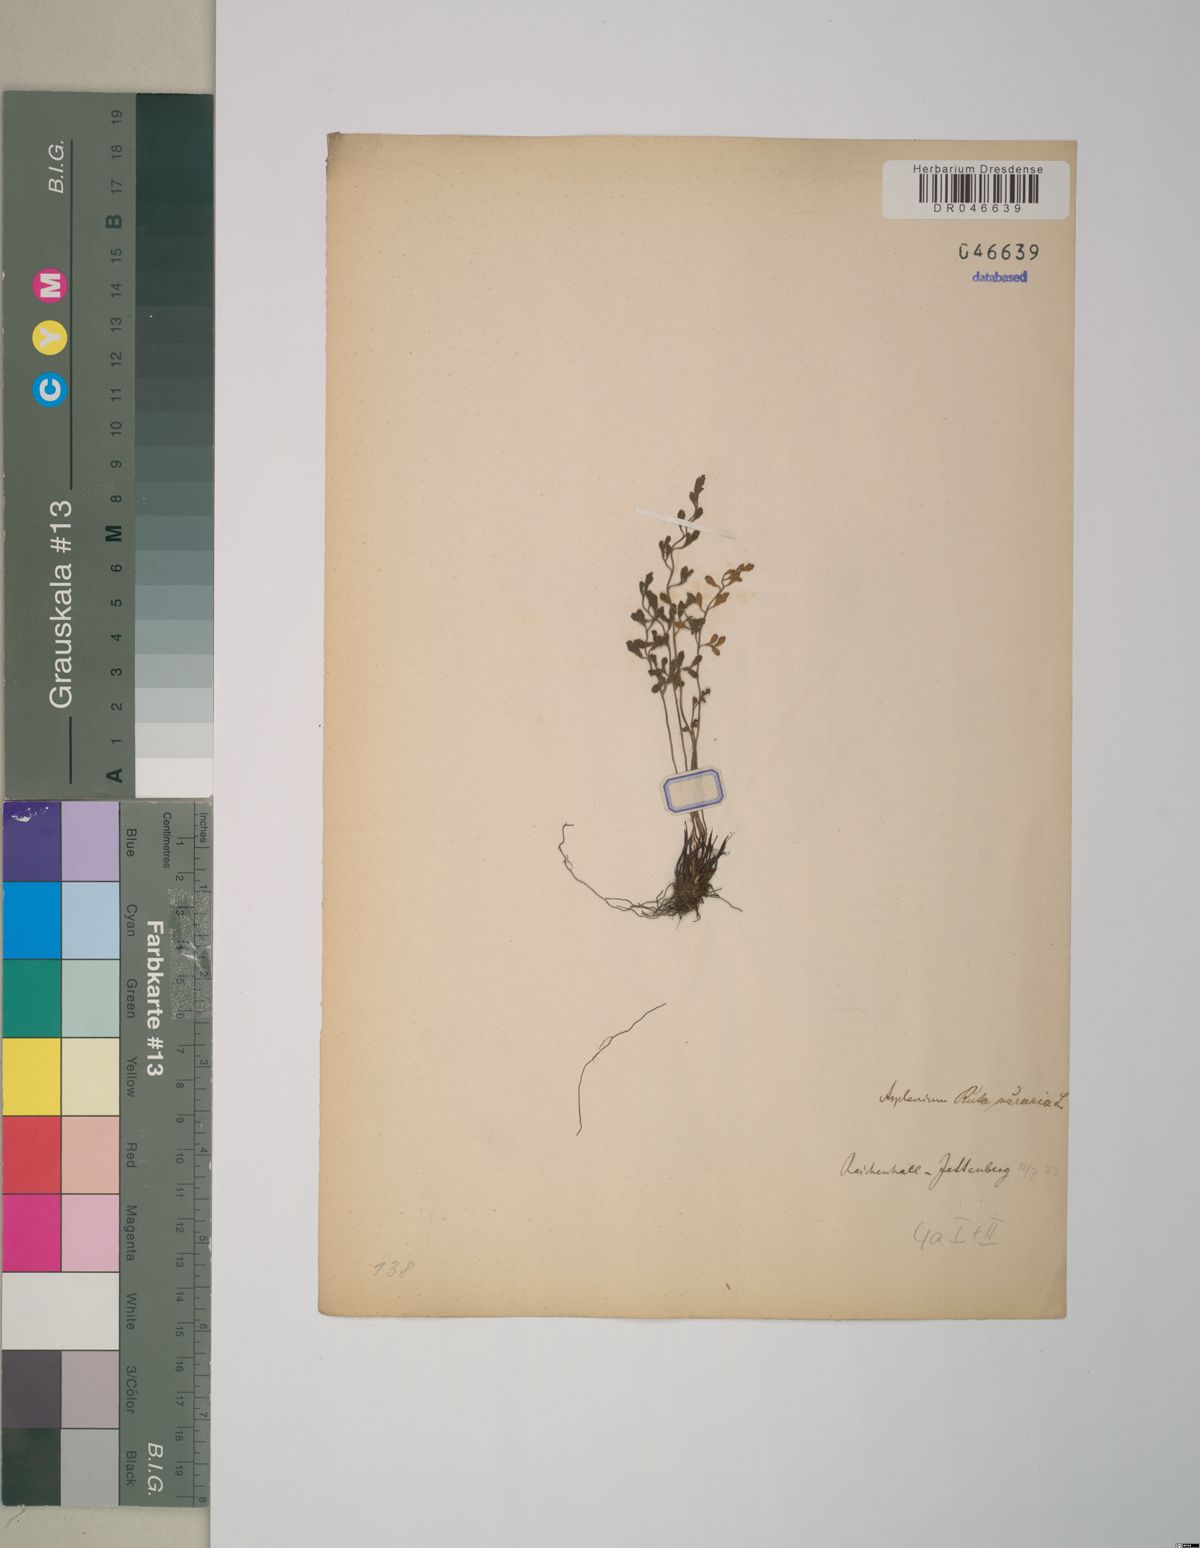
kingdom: Plantae
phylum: Tracheophyta
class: Polypodiopsida
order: Polypodiales
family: Aspleniaceae
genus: Asplenium
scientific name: Asplenium ruta-muraria
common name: Wall-rue
